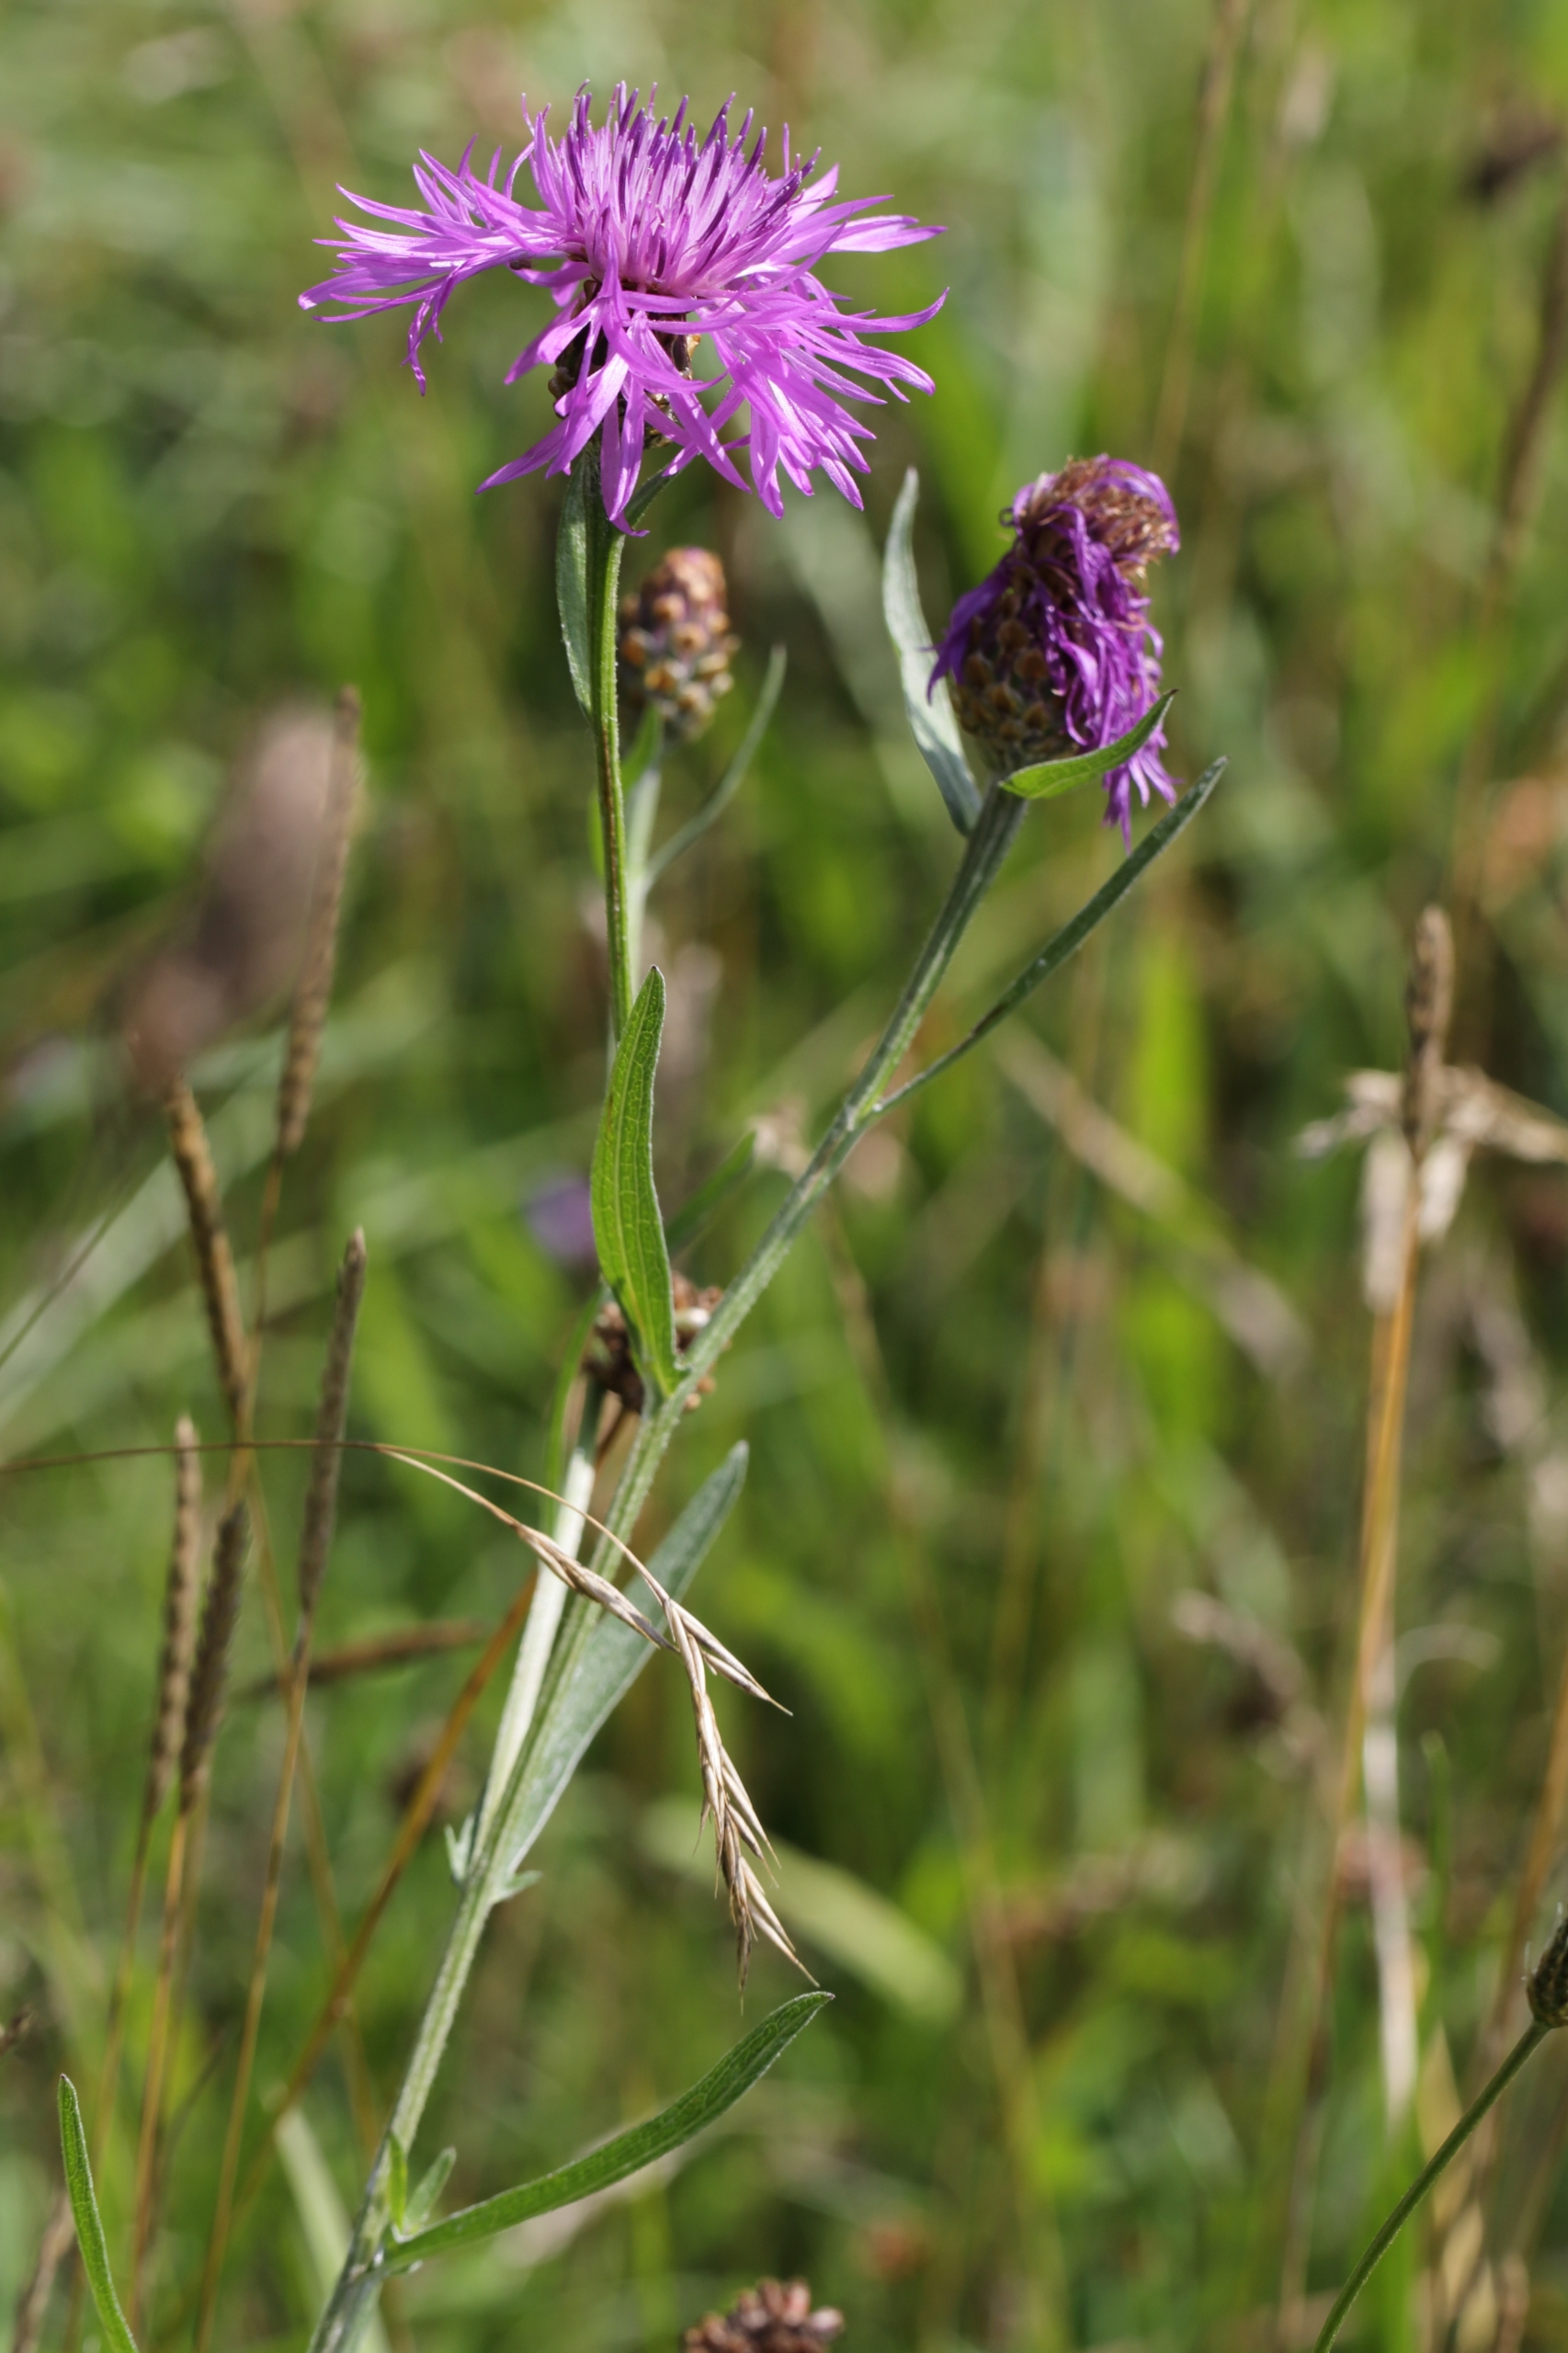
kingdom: Plantae
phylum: Tracheophyta
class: Magnoliopsida
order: Asterales
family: Asteraceae
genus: Centaurea
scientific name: Centaurea jacea
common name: Almindelig knopurt
